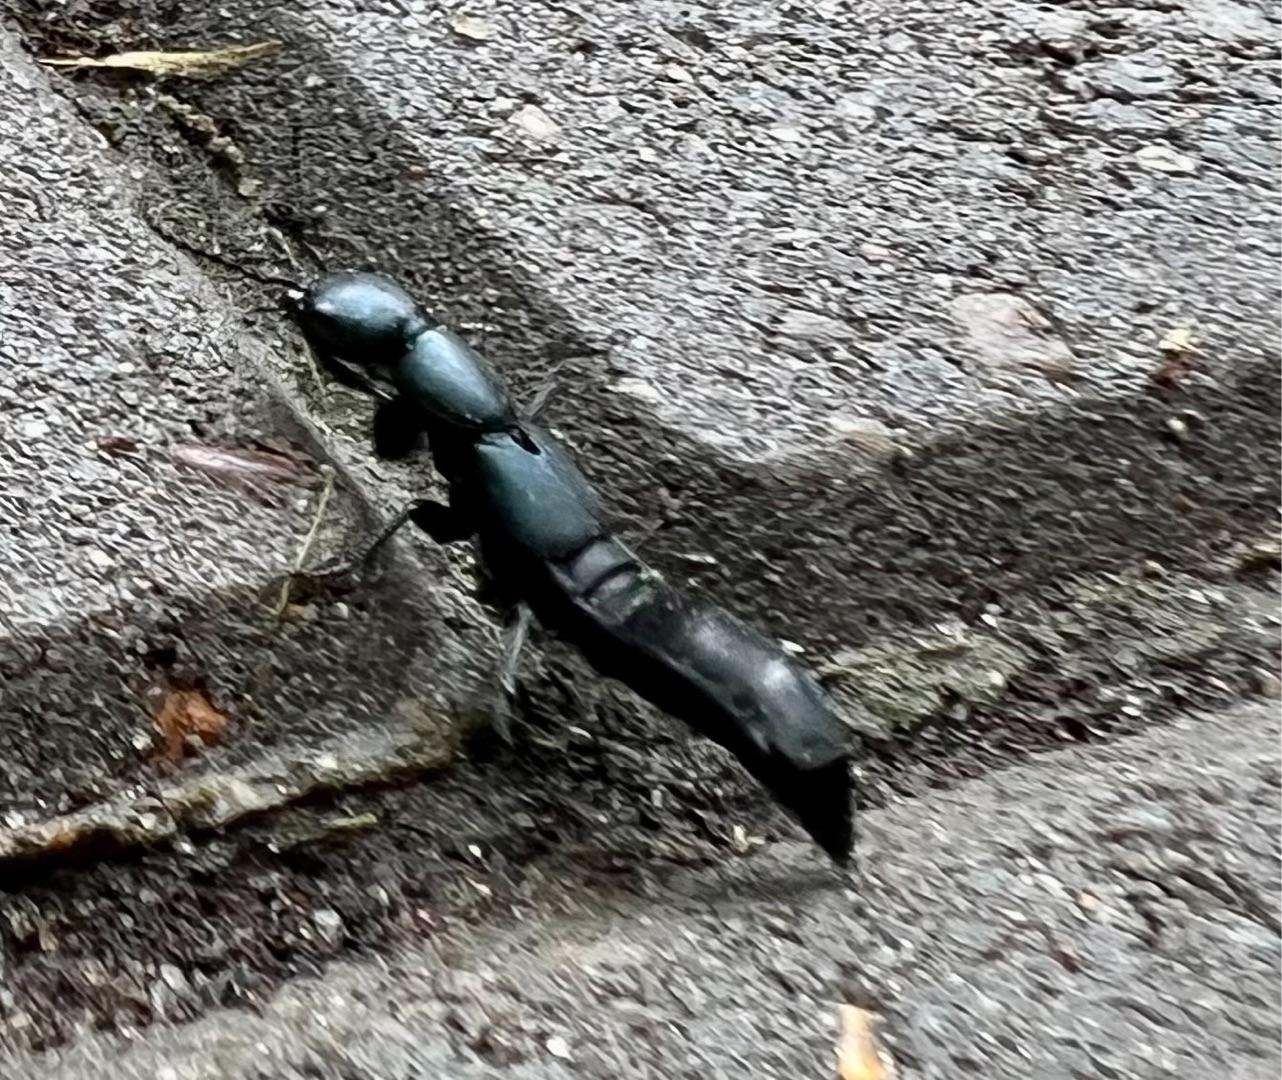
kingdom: Animalia
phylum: Arthropoda
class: Insecta
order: Coleoptera
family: Staphylinidae
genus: Ocypus
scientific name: Ocypus ophthalmicus
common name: Blå kæmperovbille
